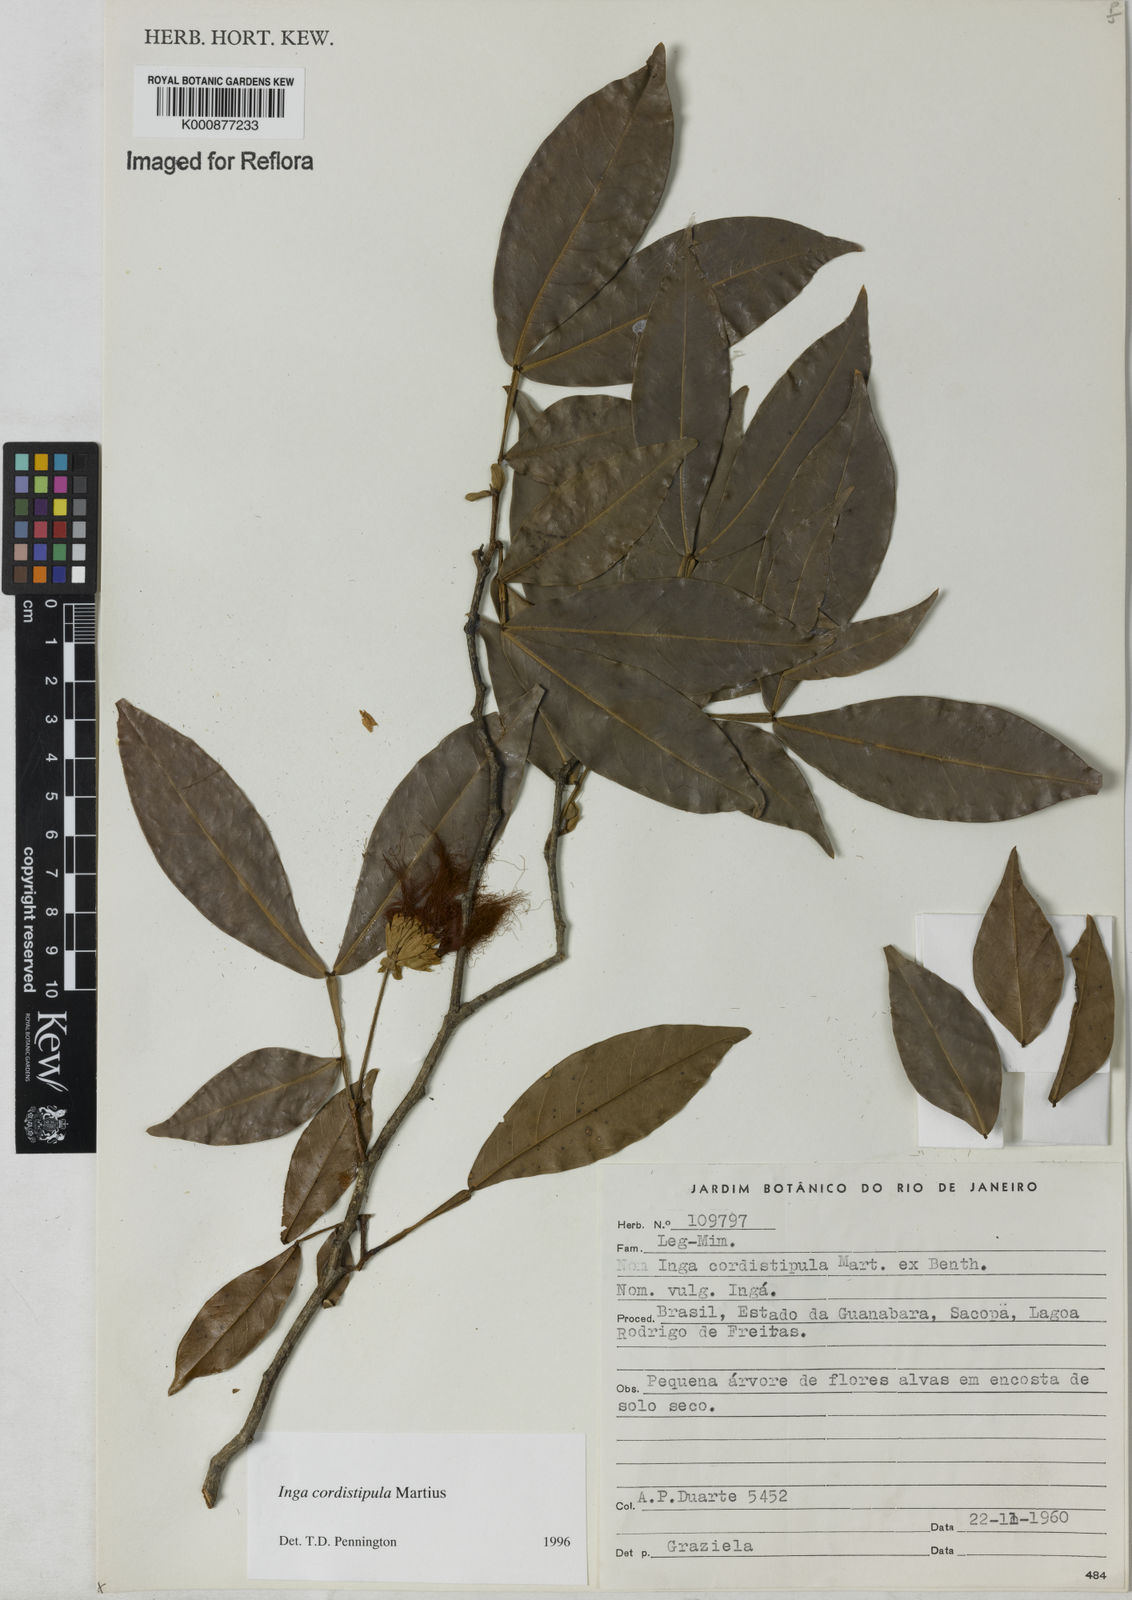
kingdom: Plantae
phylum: Tracheophyta
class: Magnoliopsida
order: Fabales
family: Fabaceae
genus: Inga
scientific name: Inga cordistipula
